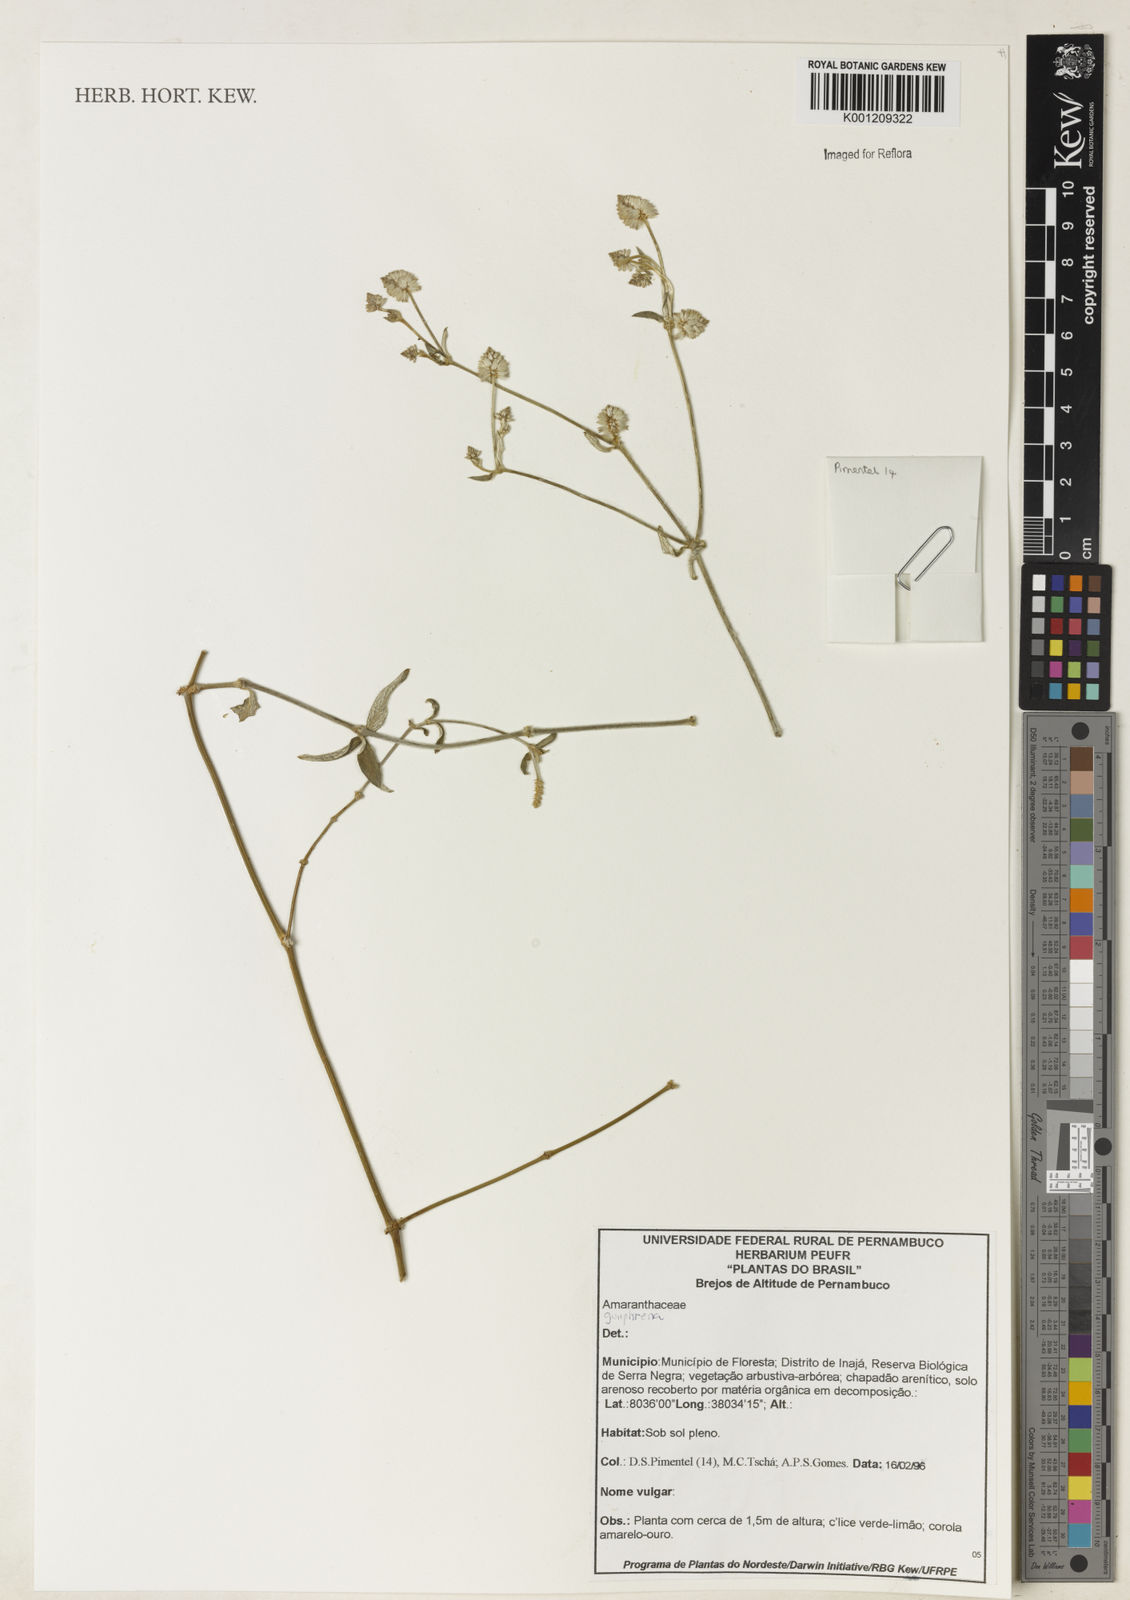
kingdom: Plantae
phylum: Tracheophyta
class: Magnoliopsida
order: Caryophyllales
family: Amaranthaceae
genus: Gomphrena
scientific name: Gomphrena
